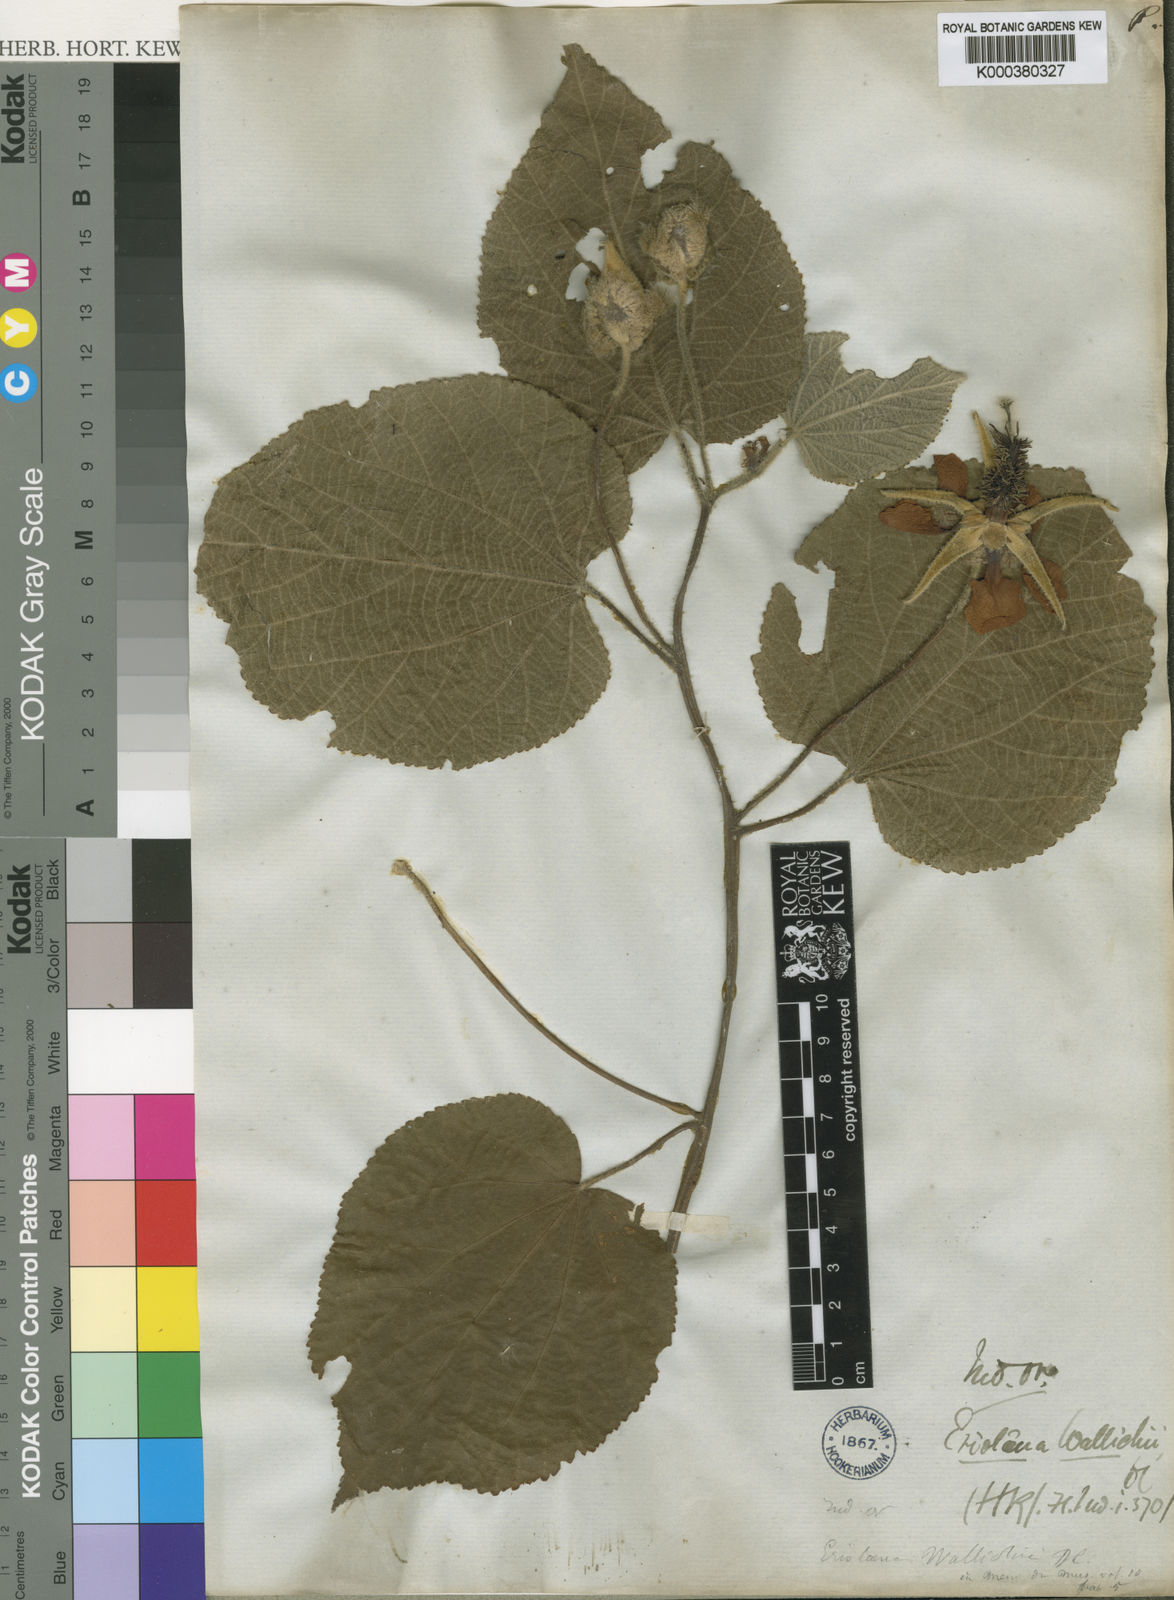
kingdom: Plantae
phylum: Tracheophyta
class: Magnoliopsida
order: Malvales
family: Malvaceae
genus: Eriolaena
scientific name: Eriolaena wallichii
